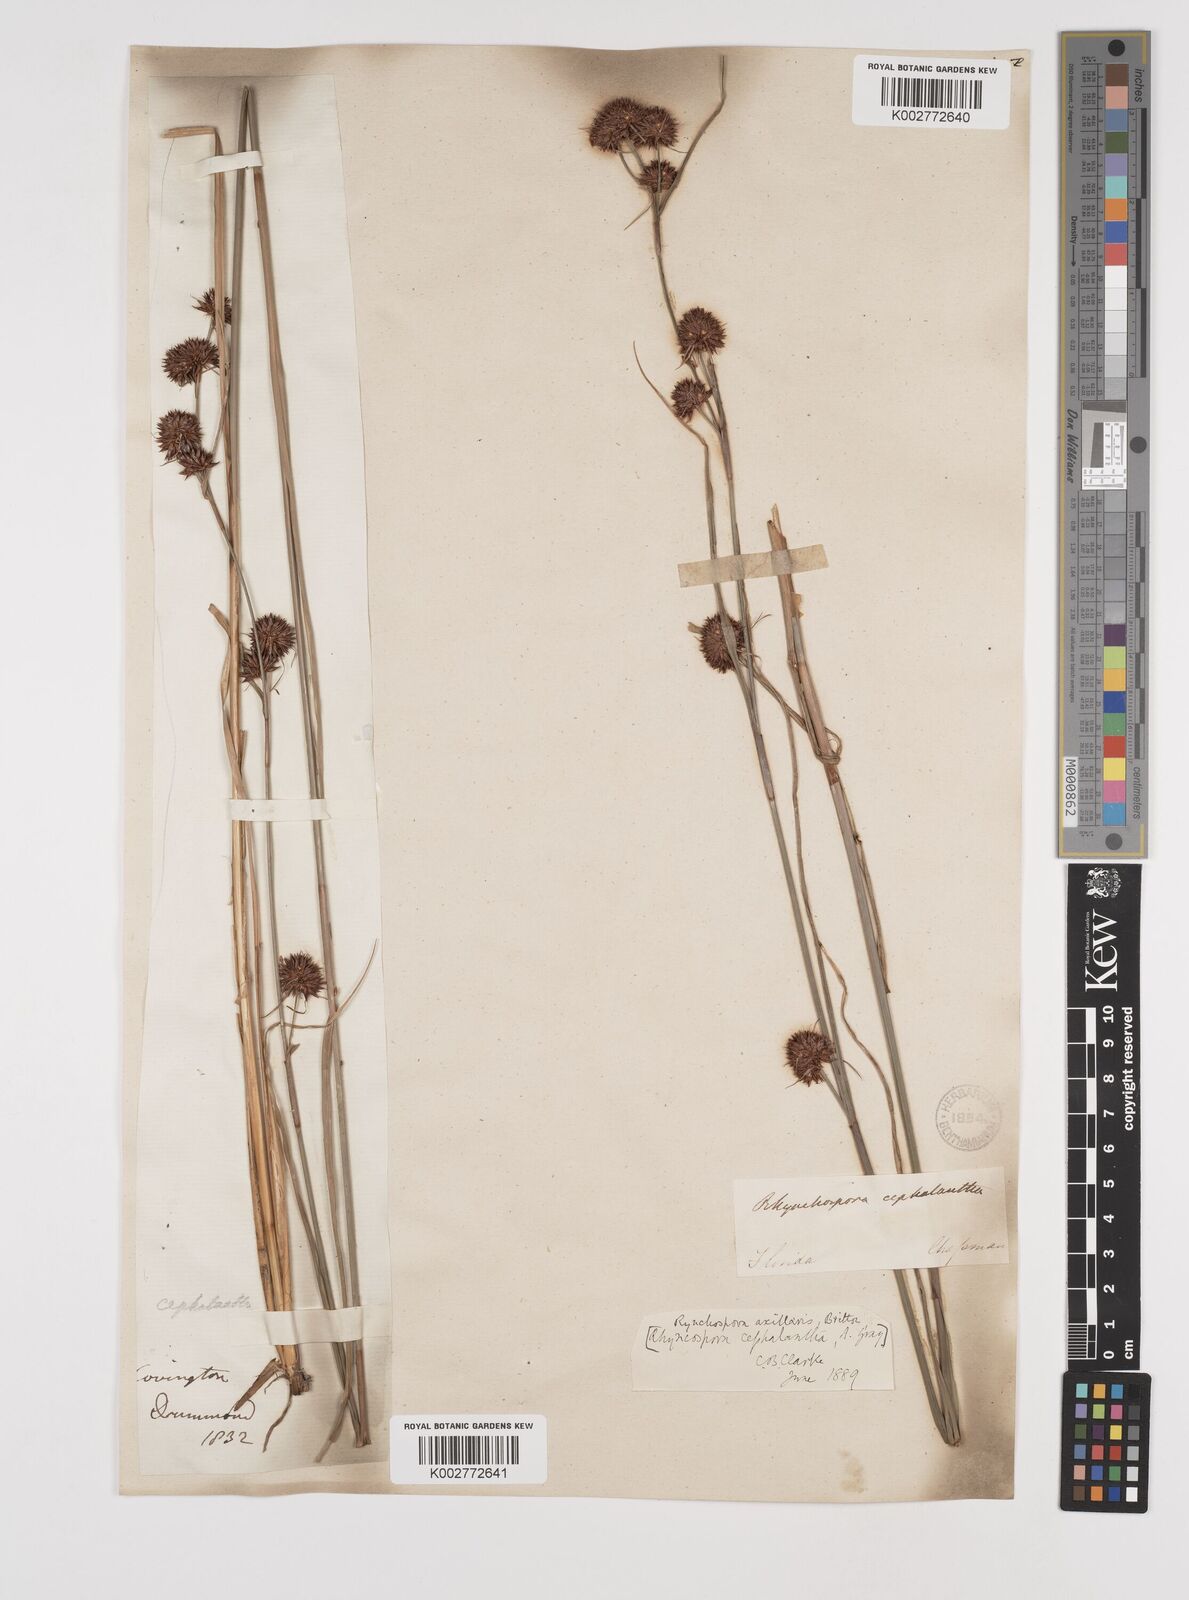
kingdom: Plantae
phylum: Tracheophyta
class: Liliopsida
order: Poales
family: Cyperaceae
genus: Rhynchospora
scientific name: Rhynchospora glomerata
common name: Cluster beak sedge
